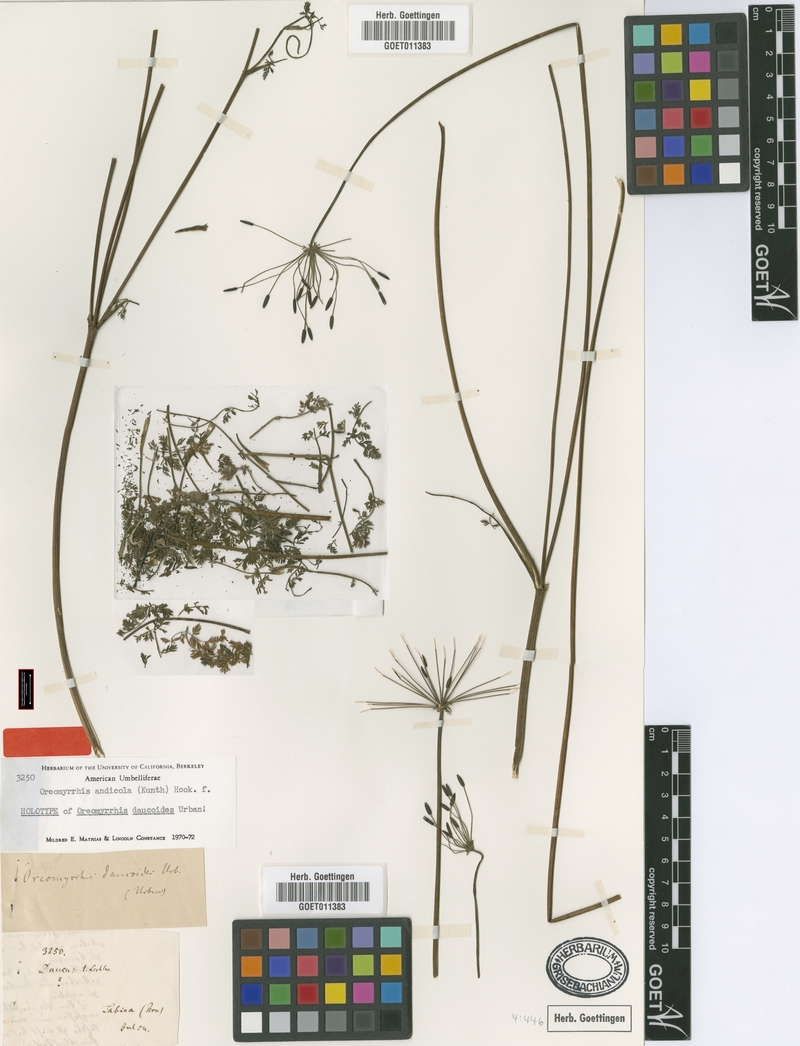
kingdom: Plantae
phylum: Tracheophyta
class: Magnoliopsida
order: Apiales
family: Apiaceae
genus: Chaerophyllum
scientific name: Chaerophyllum andicola
